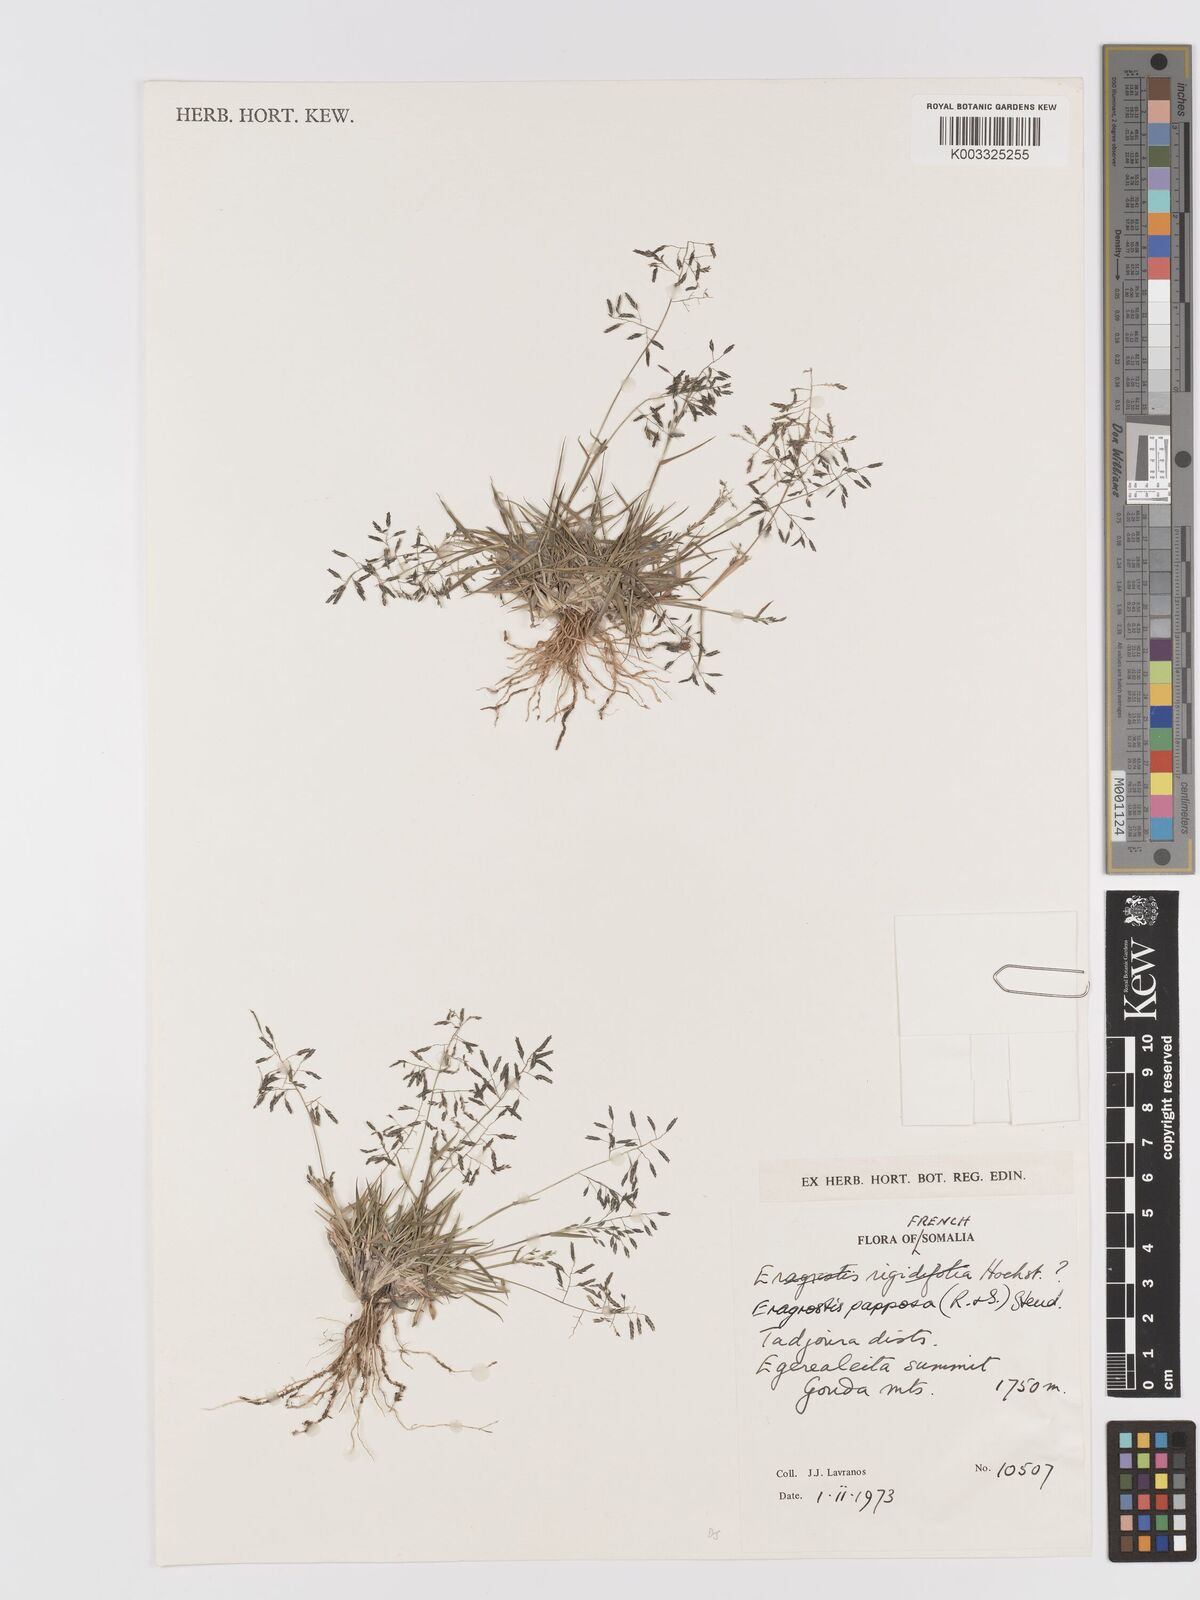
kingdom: Plantae
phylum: Tracheophyta
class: Liliopsida
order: Poales
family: Poaceae
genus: Eragrostis
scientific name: Eragrostis papposa
